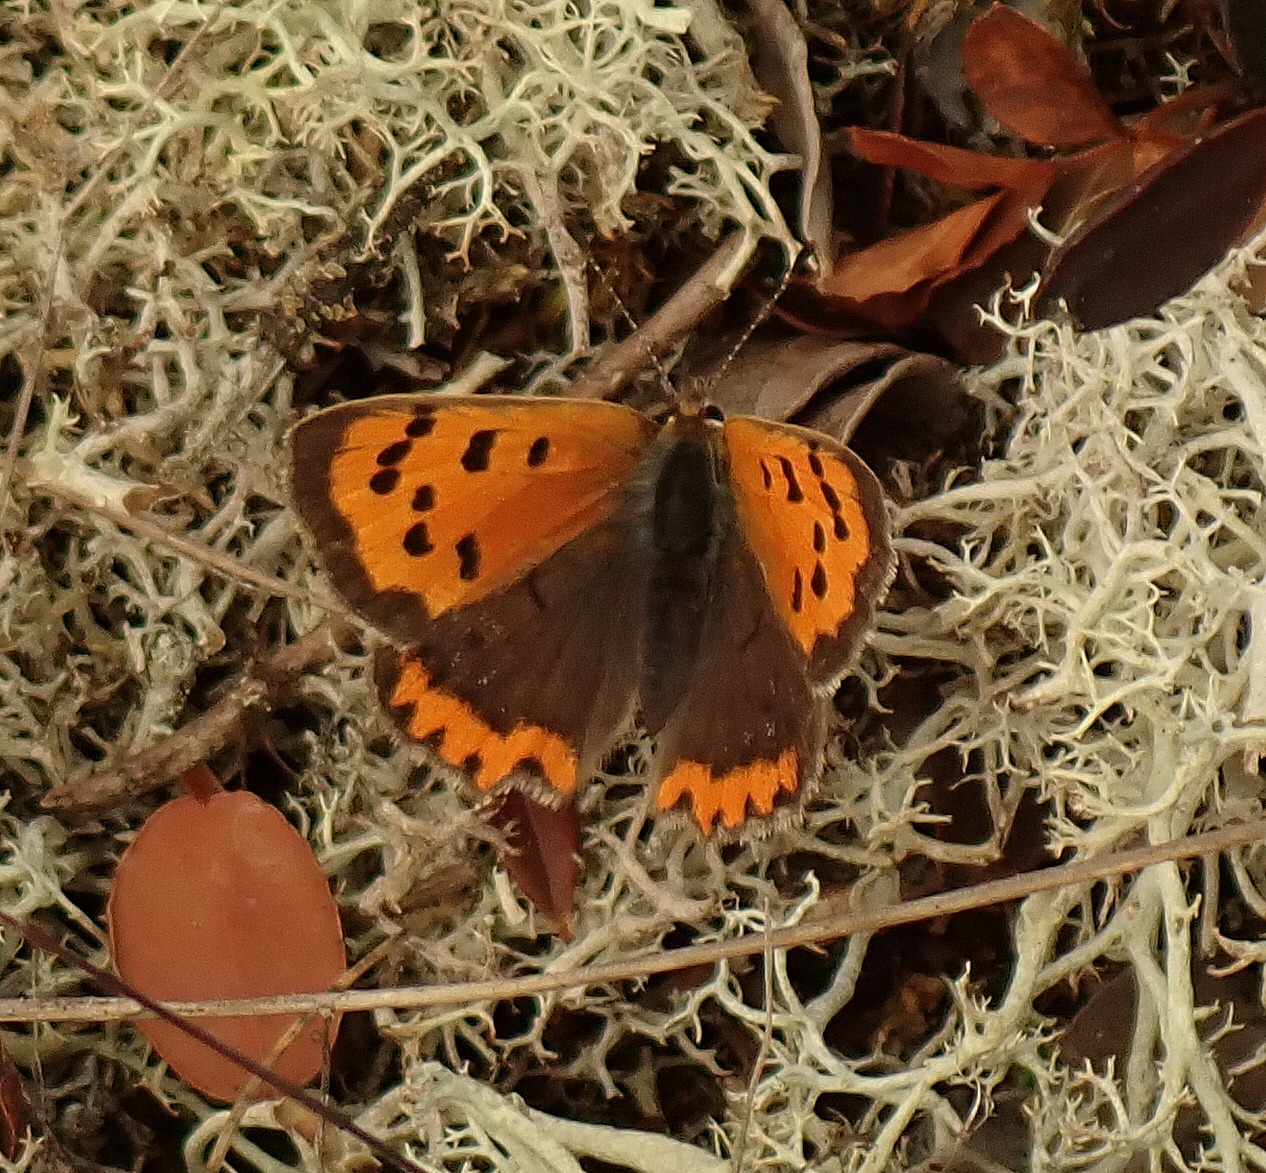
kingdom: Animalia
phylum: Arthropoda
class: Insecta
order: Lepidoptera
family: Lycaenidae
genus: Lycaena
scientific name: Lycaena phlaeas
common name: Lille ildfugl
